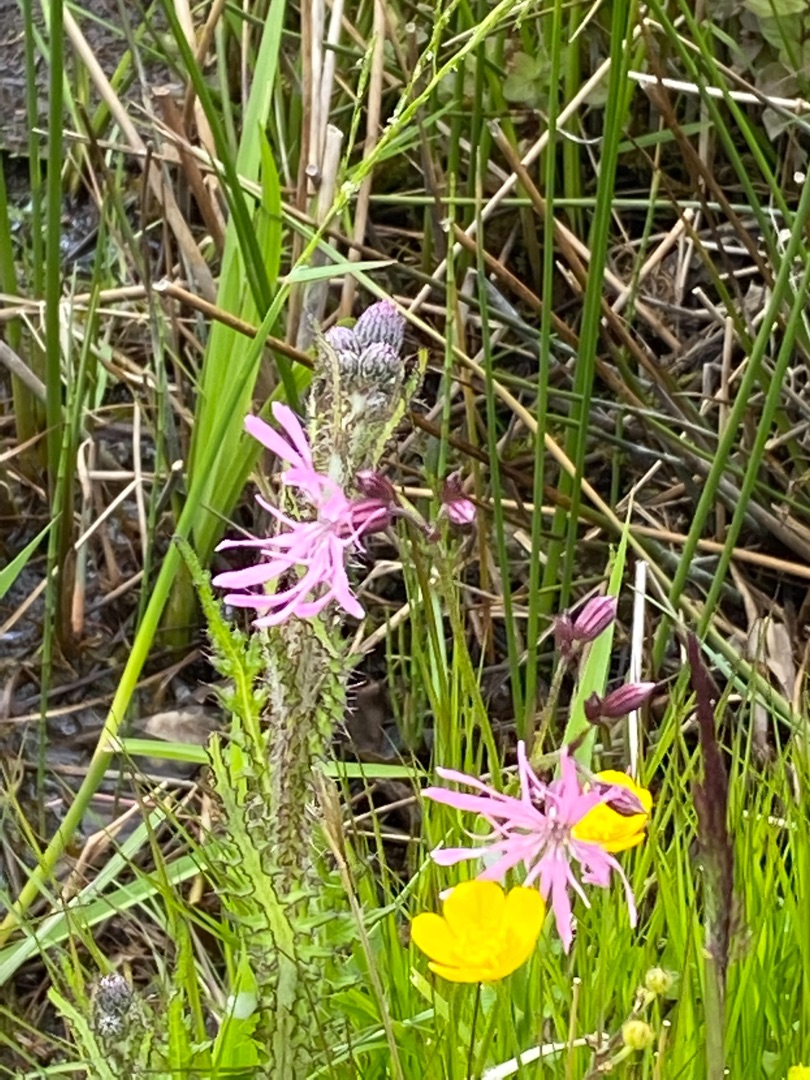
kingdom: Plantae
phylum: Tracheophyta
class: Magnoliopsida
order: Caryophyllales
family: Caryophyllaceae
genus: Silene
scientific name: Silene flos-cuculi
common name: Trævlekrone
